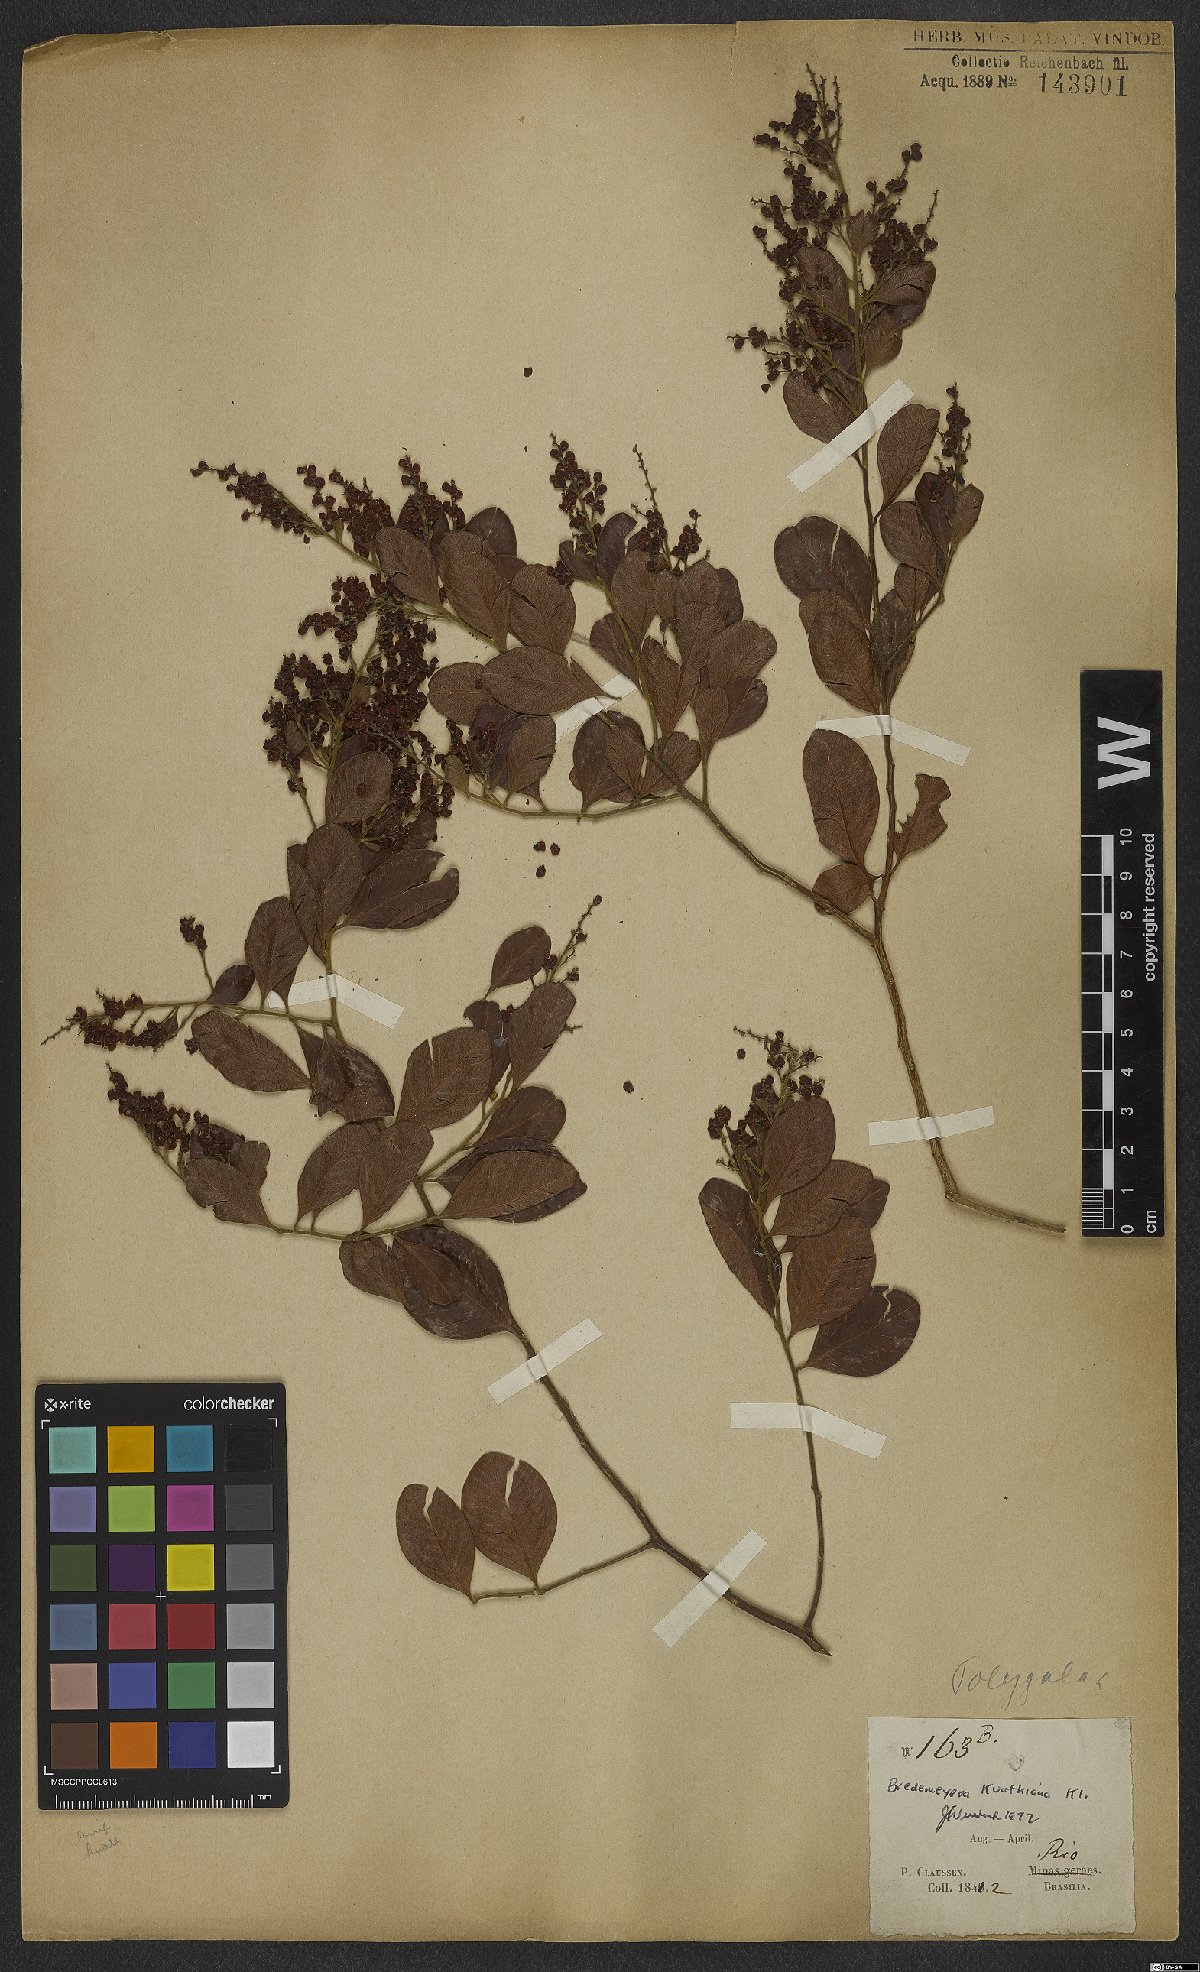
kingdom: Plantae
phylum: Tracheophyta
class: Magnoliopsida
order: Fabales
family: Polygalaceae
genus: Bredemeyera
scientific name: Bredemeyera hebeclada
